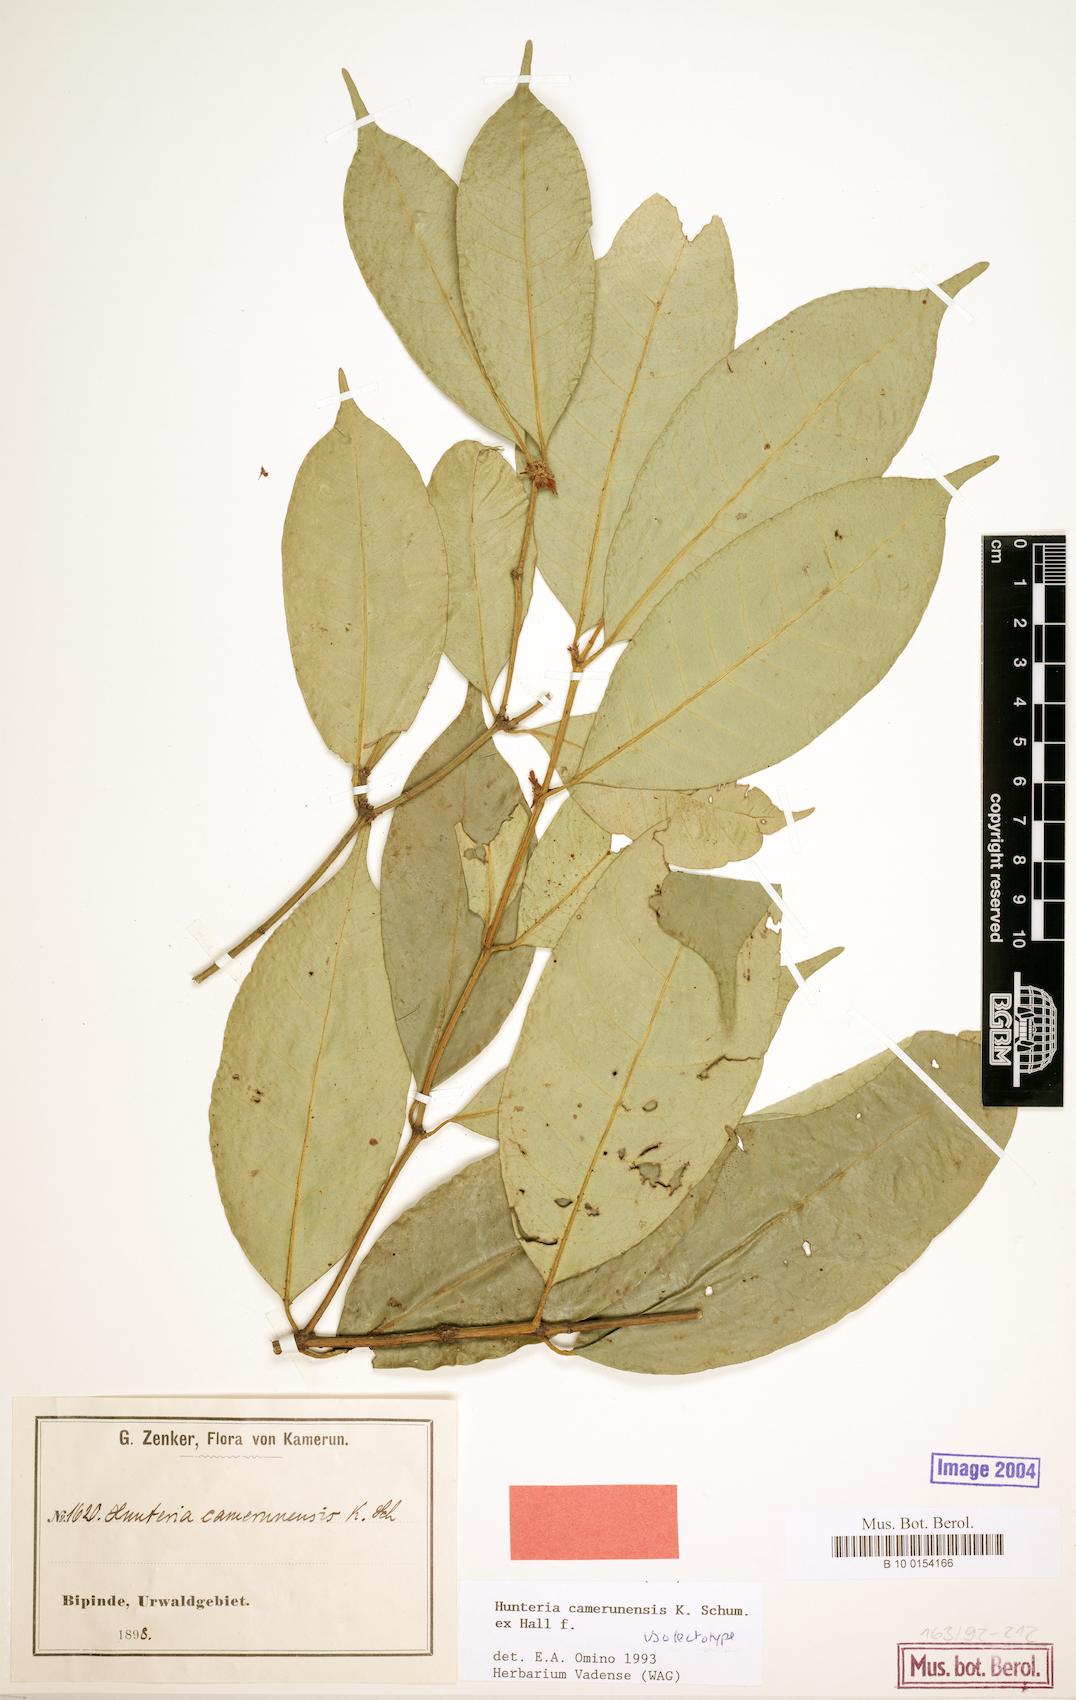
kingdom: Plantae
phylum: Tracheophyta
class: Magnoliopsida
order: Gentianales
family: Apocynaceae
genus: Hunteria
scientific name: Hunteria camerunensis
